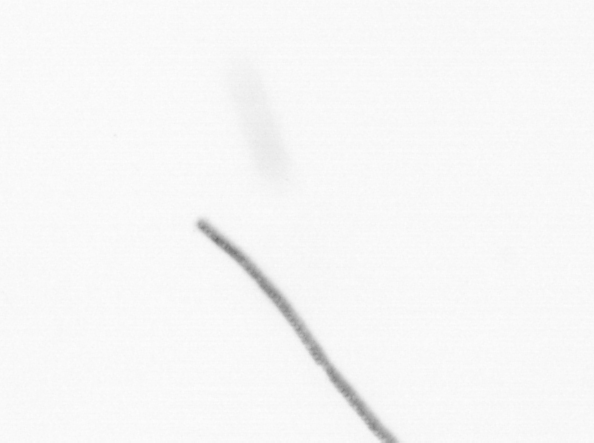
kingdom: Chromista
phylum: Ochrophyta
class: Bacillariophyceae
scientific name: Bacillariophyceae
